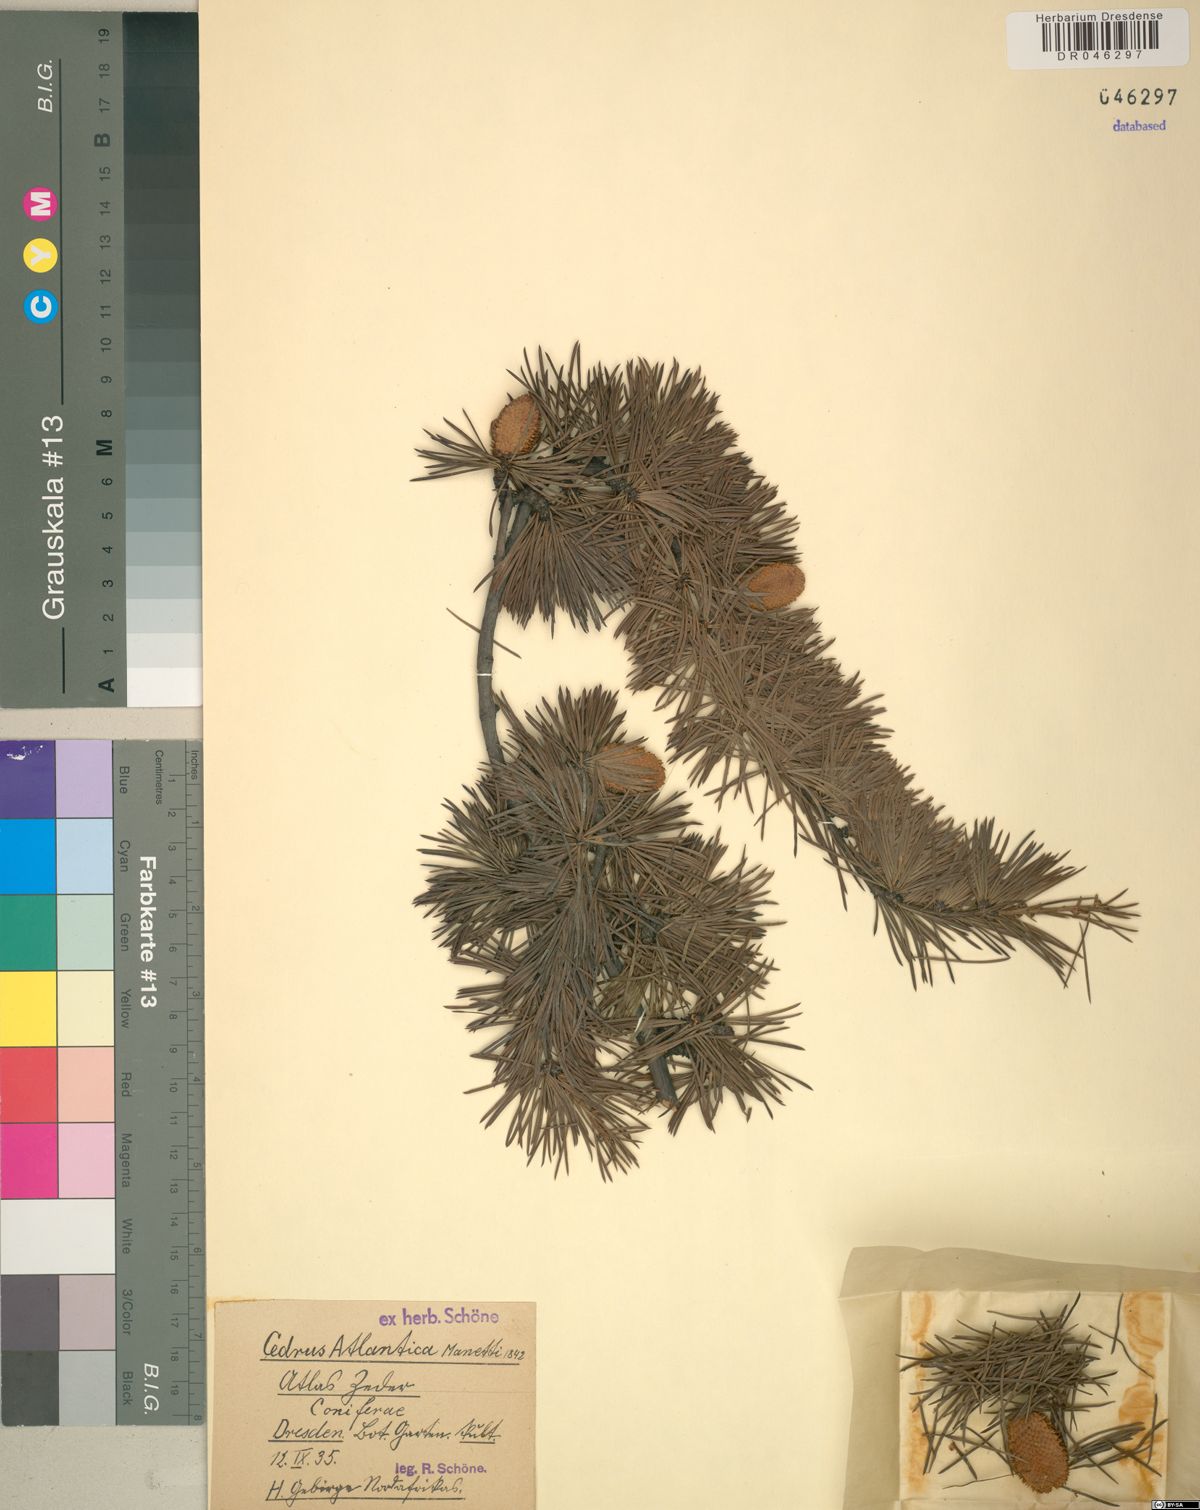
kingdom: Plantae
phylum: Tracheophyta
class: Pinopsida
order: Pinales
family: Pinaceae
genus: Cedrus
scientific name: Cedrus atlantica
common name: Atlas cedar
